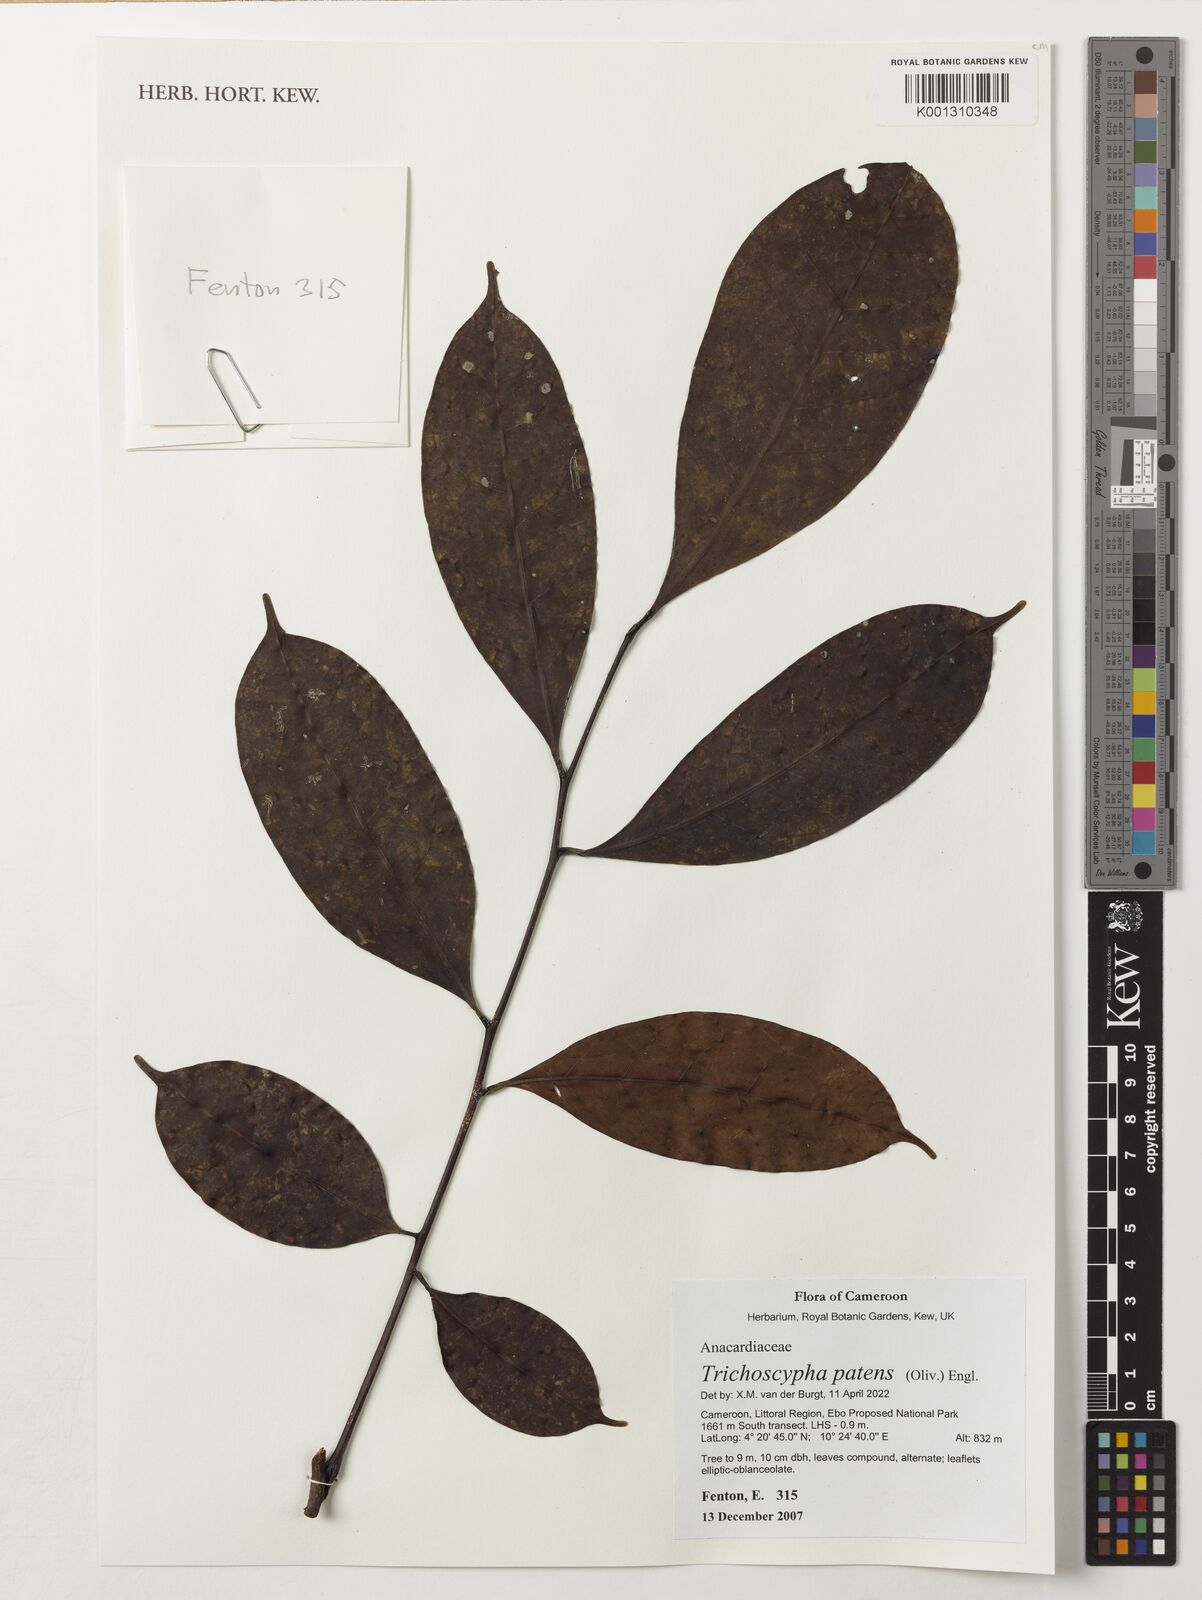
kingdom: Plantae
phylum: Tracheophyta
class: Magnoliopsida
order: Sapindales
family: Anacardiaceae
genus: Trichoscypha
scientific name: Trichoscypha patens
